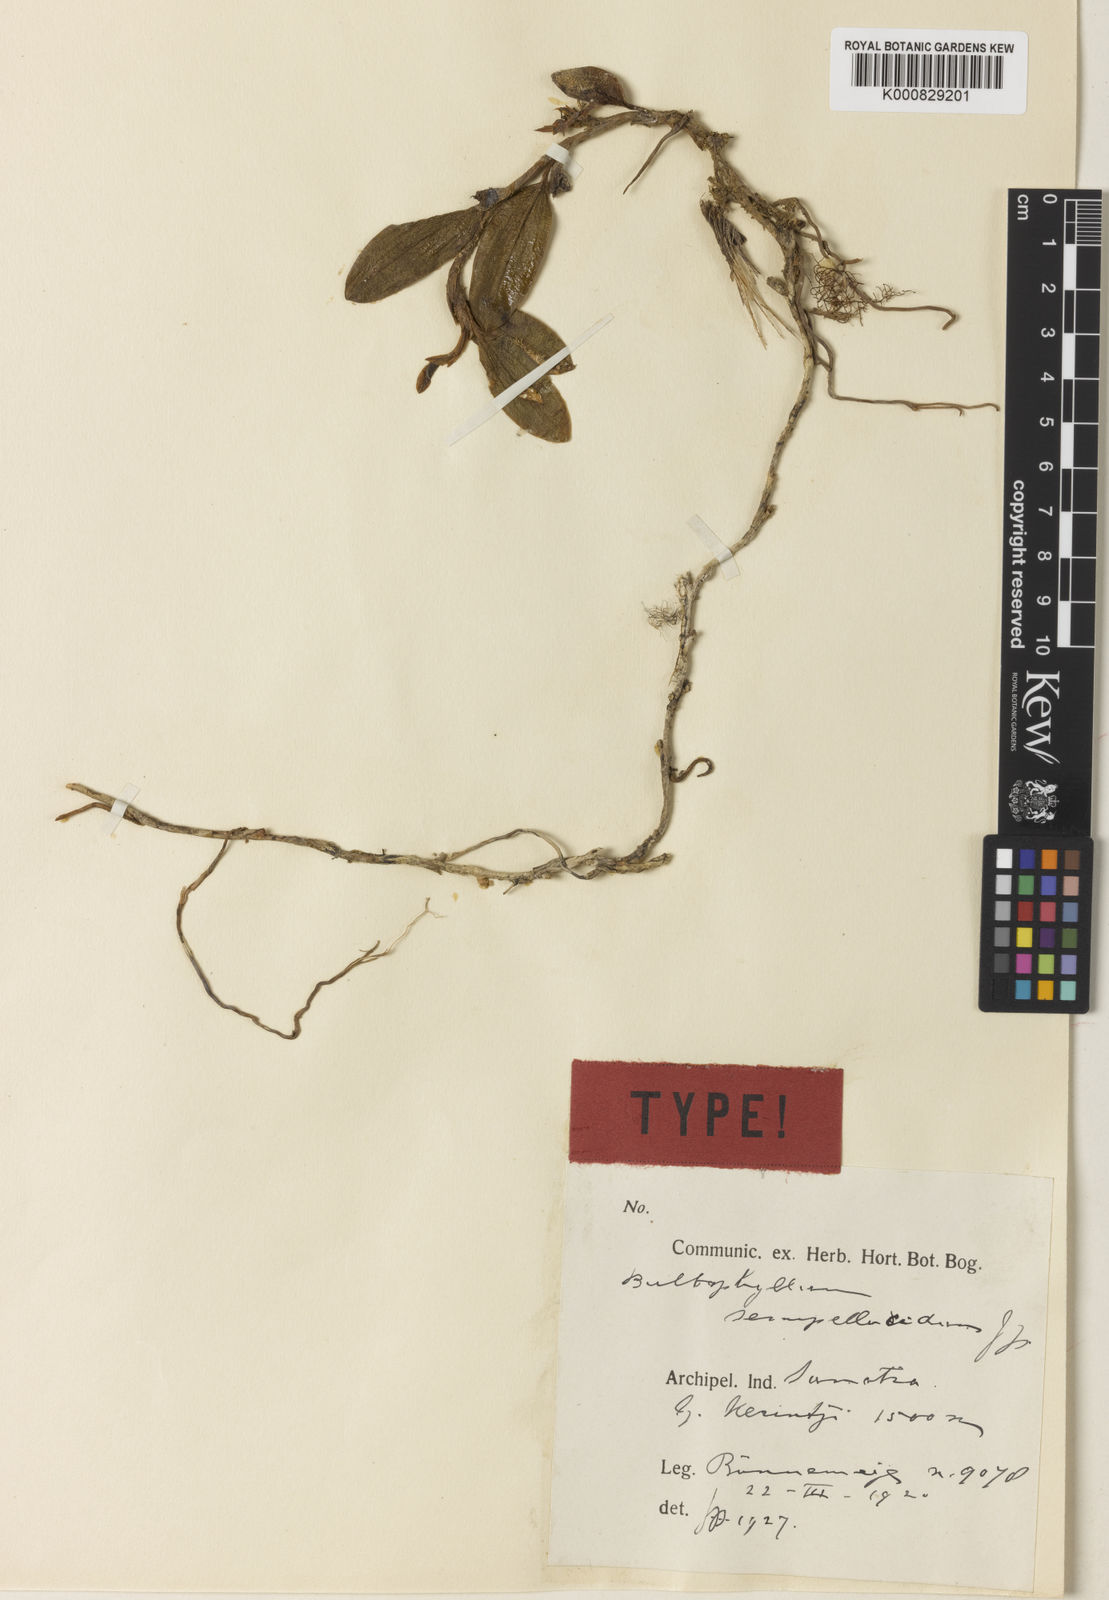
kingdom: Plantae
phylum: Tracheophyta
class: Liliopsida
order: Asparagales
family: Orchidaceae
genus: Bulbophyllum
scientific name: Bulbophyllum mutabile
